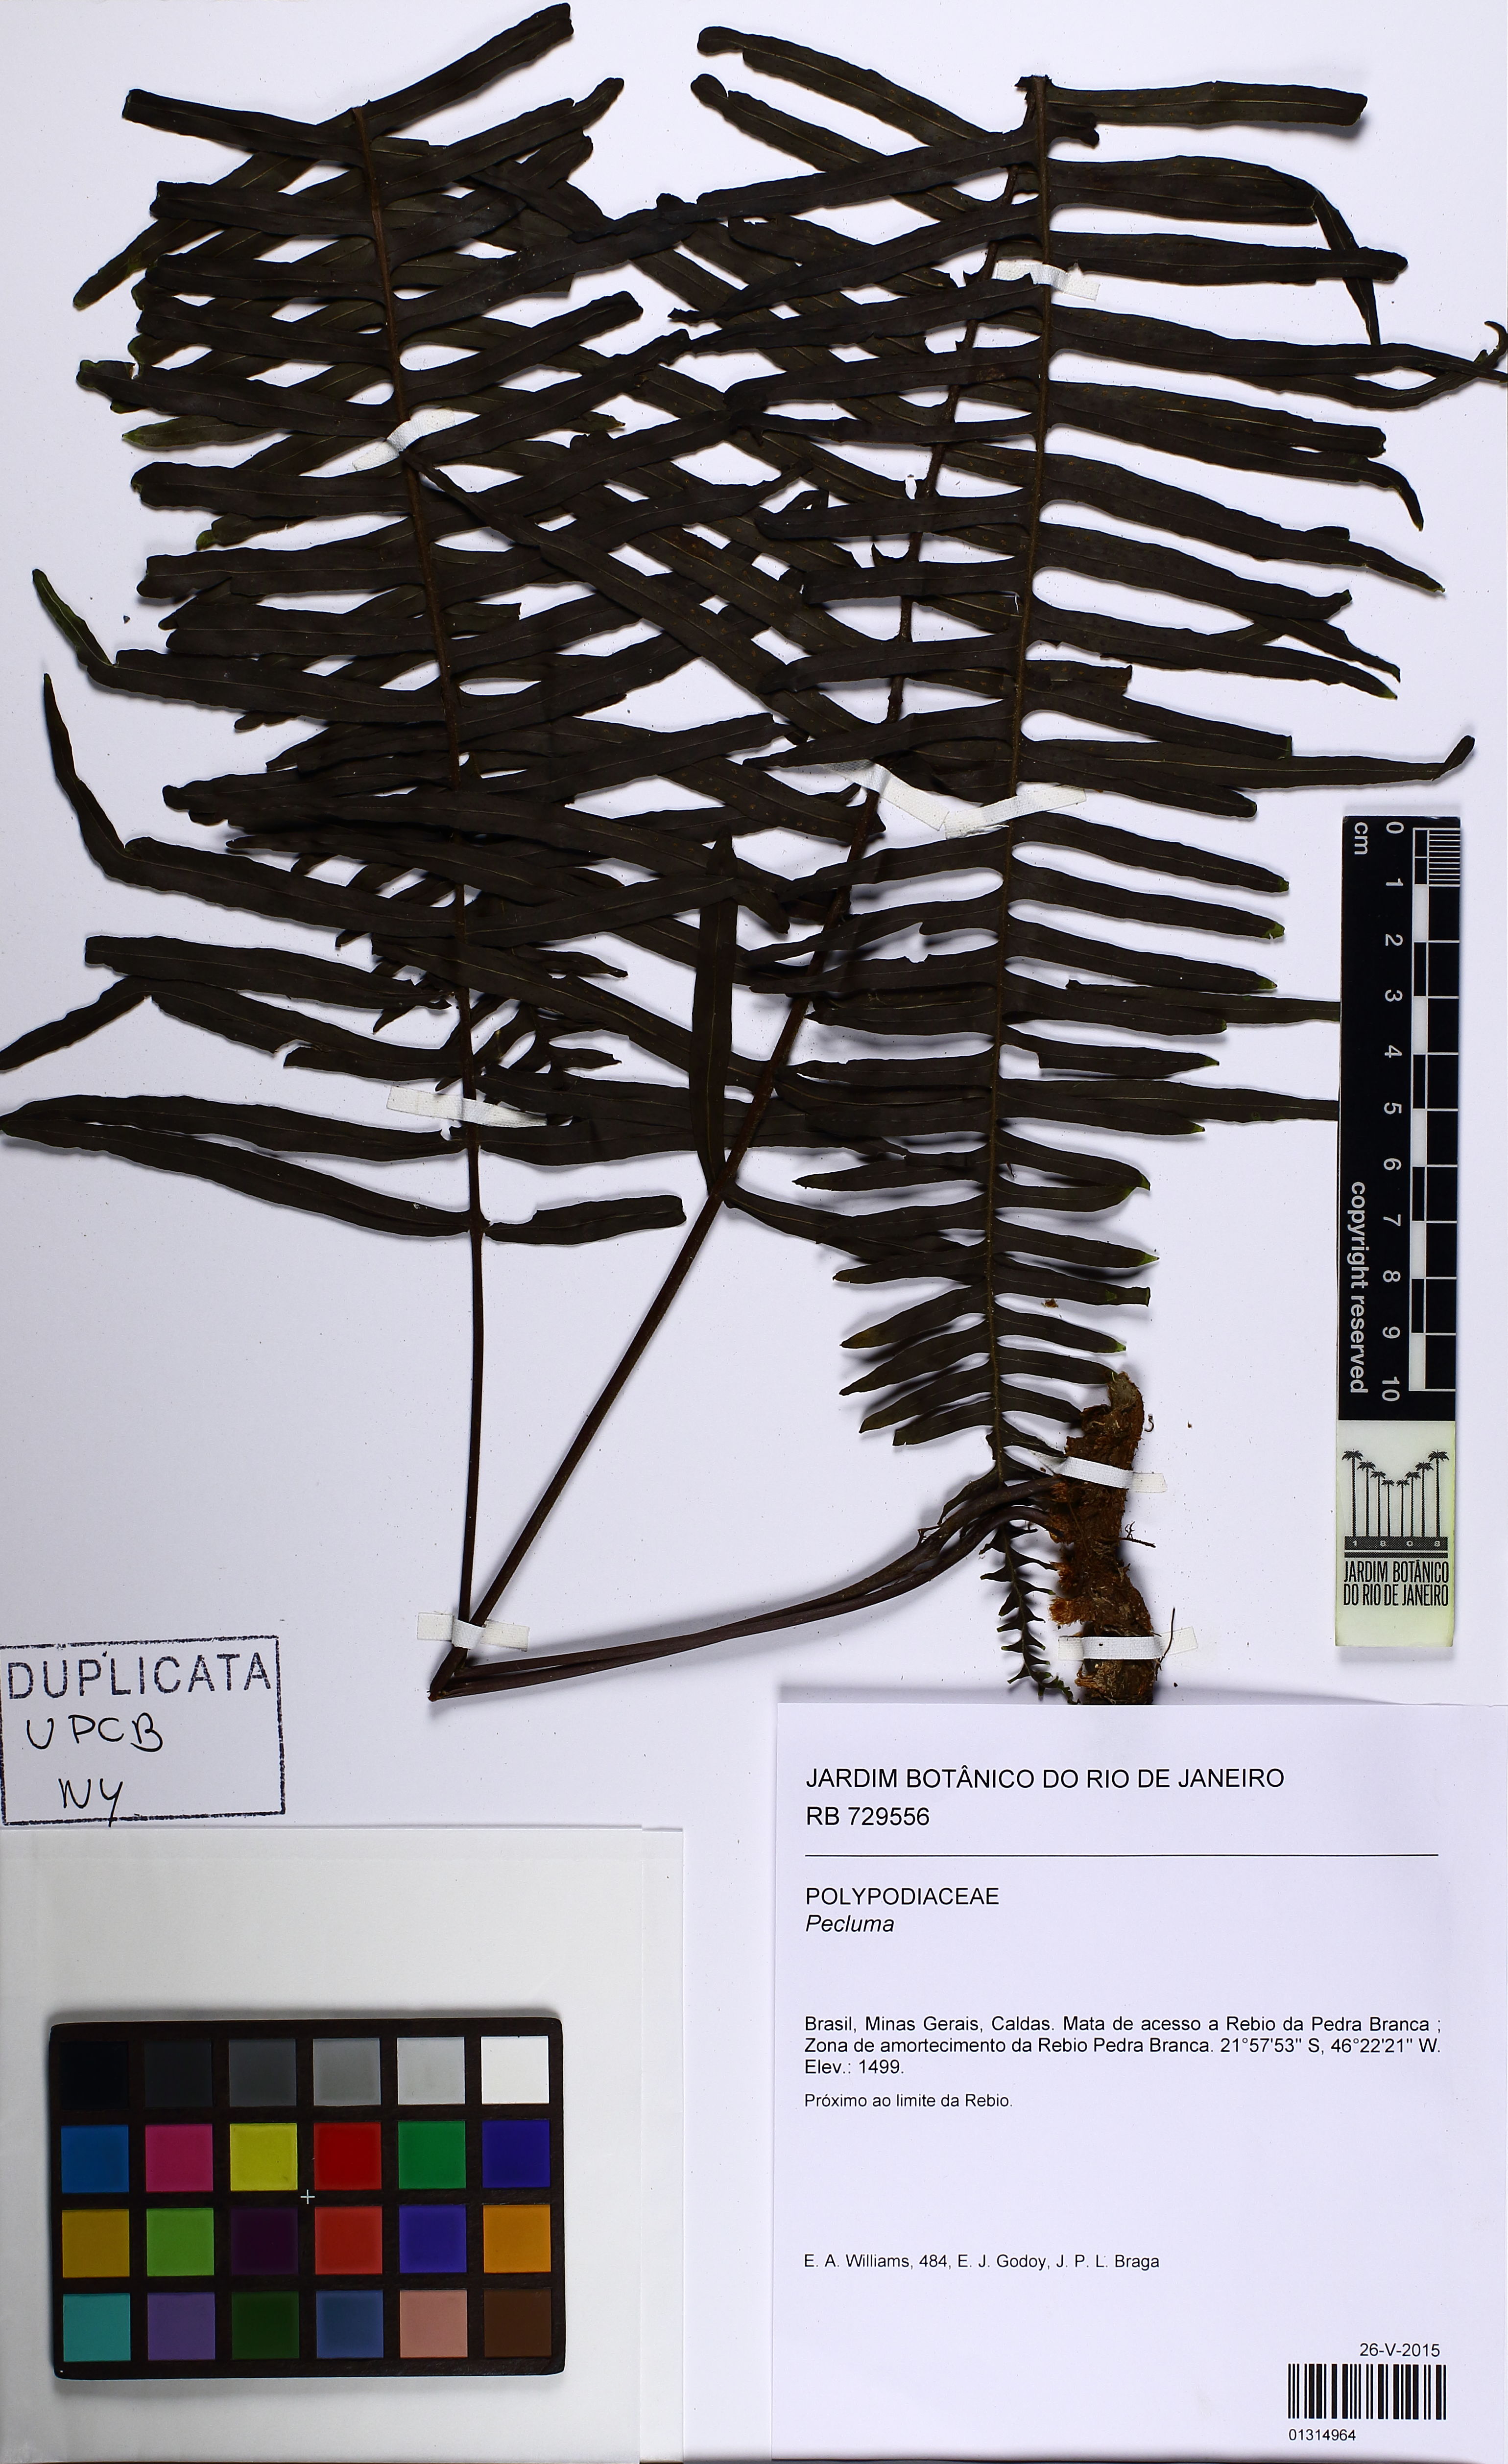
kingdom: Plantae
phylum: Tracheophyta
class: Polypodiopsida
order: Polypodiales
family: Polypodiaceae
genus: Pecluma
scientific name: Pecluma
